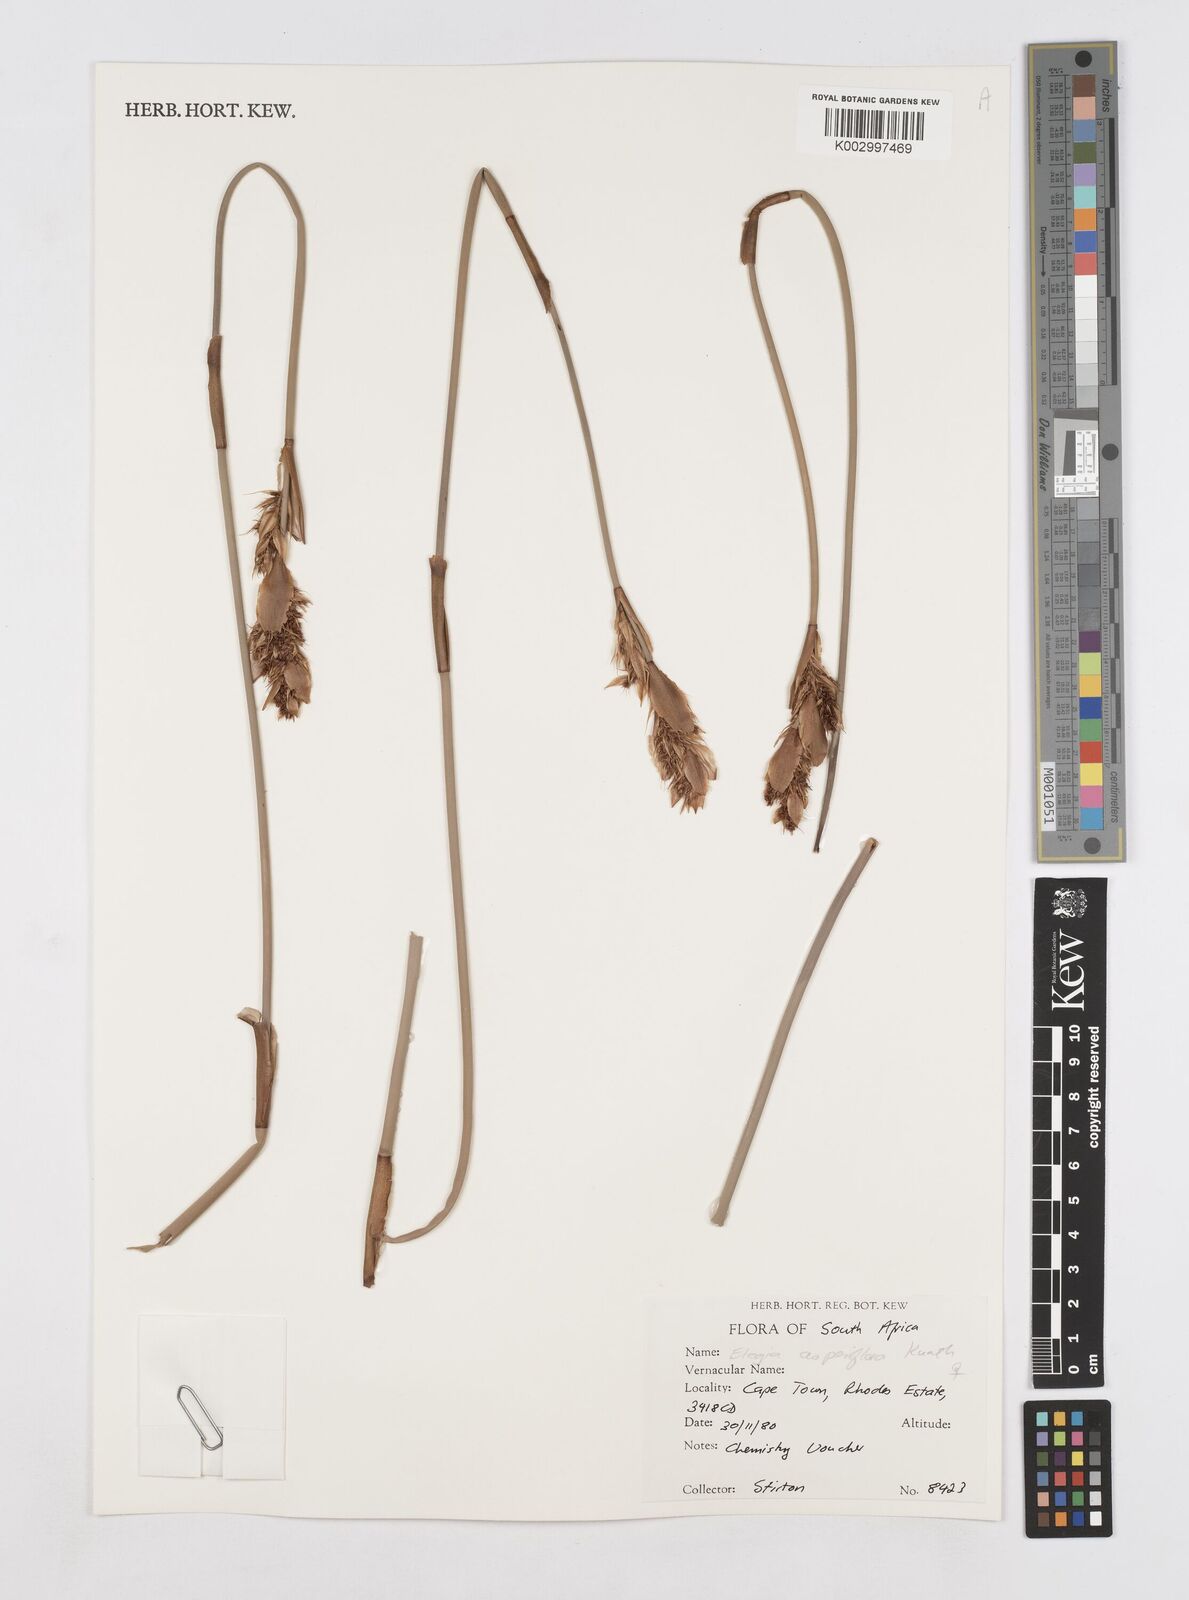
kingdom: Plantae
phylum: Tracheophyta
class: Liliopsida
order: Poales
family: Restionaceae
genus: Elegia
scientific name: Elegia asperiflora
